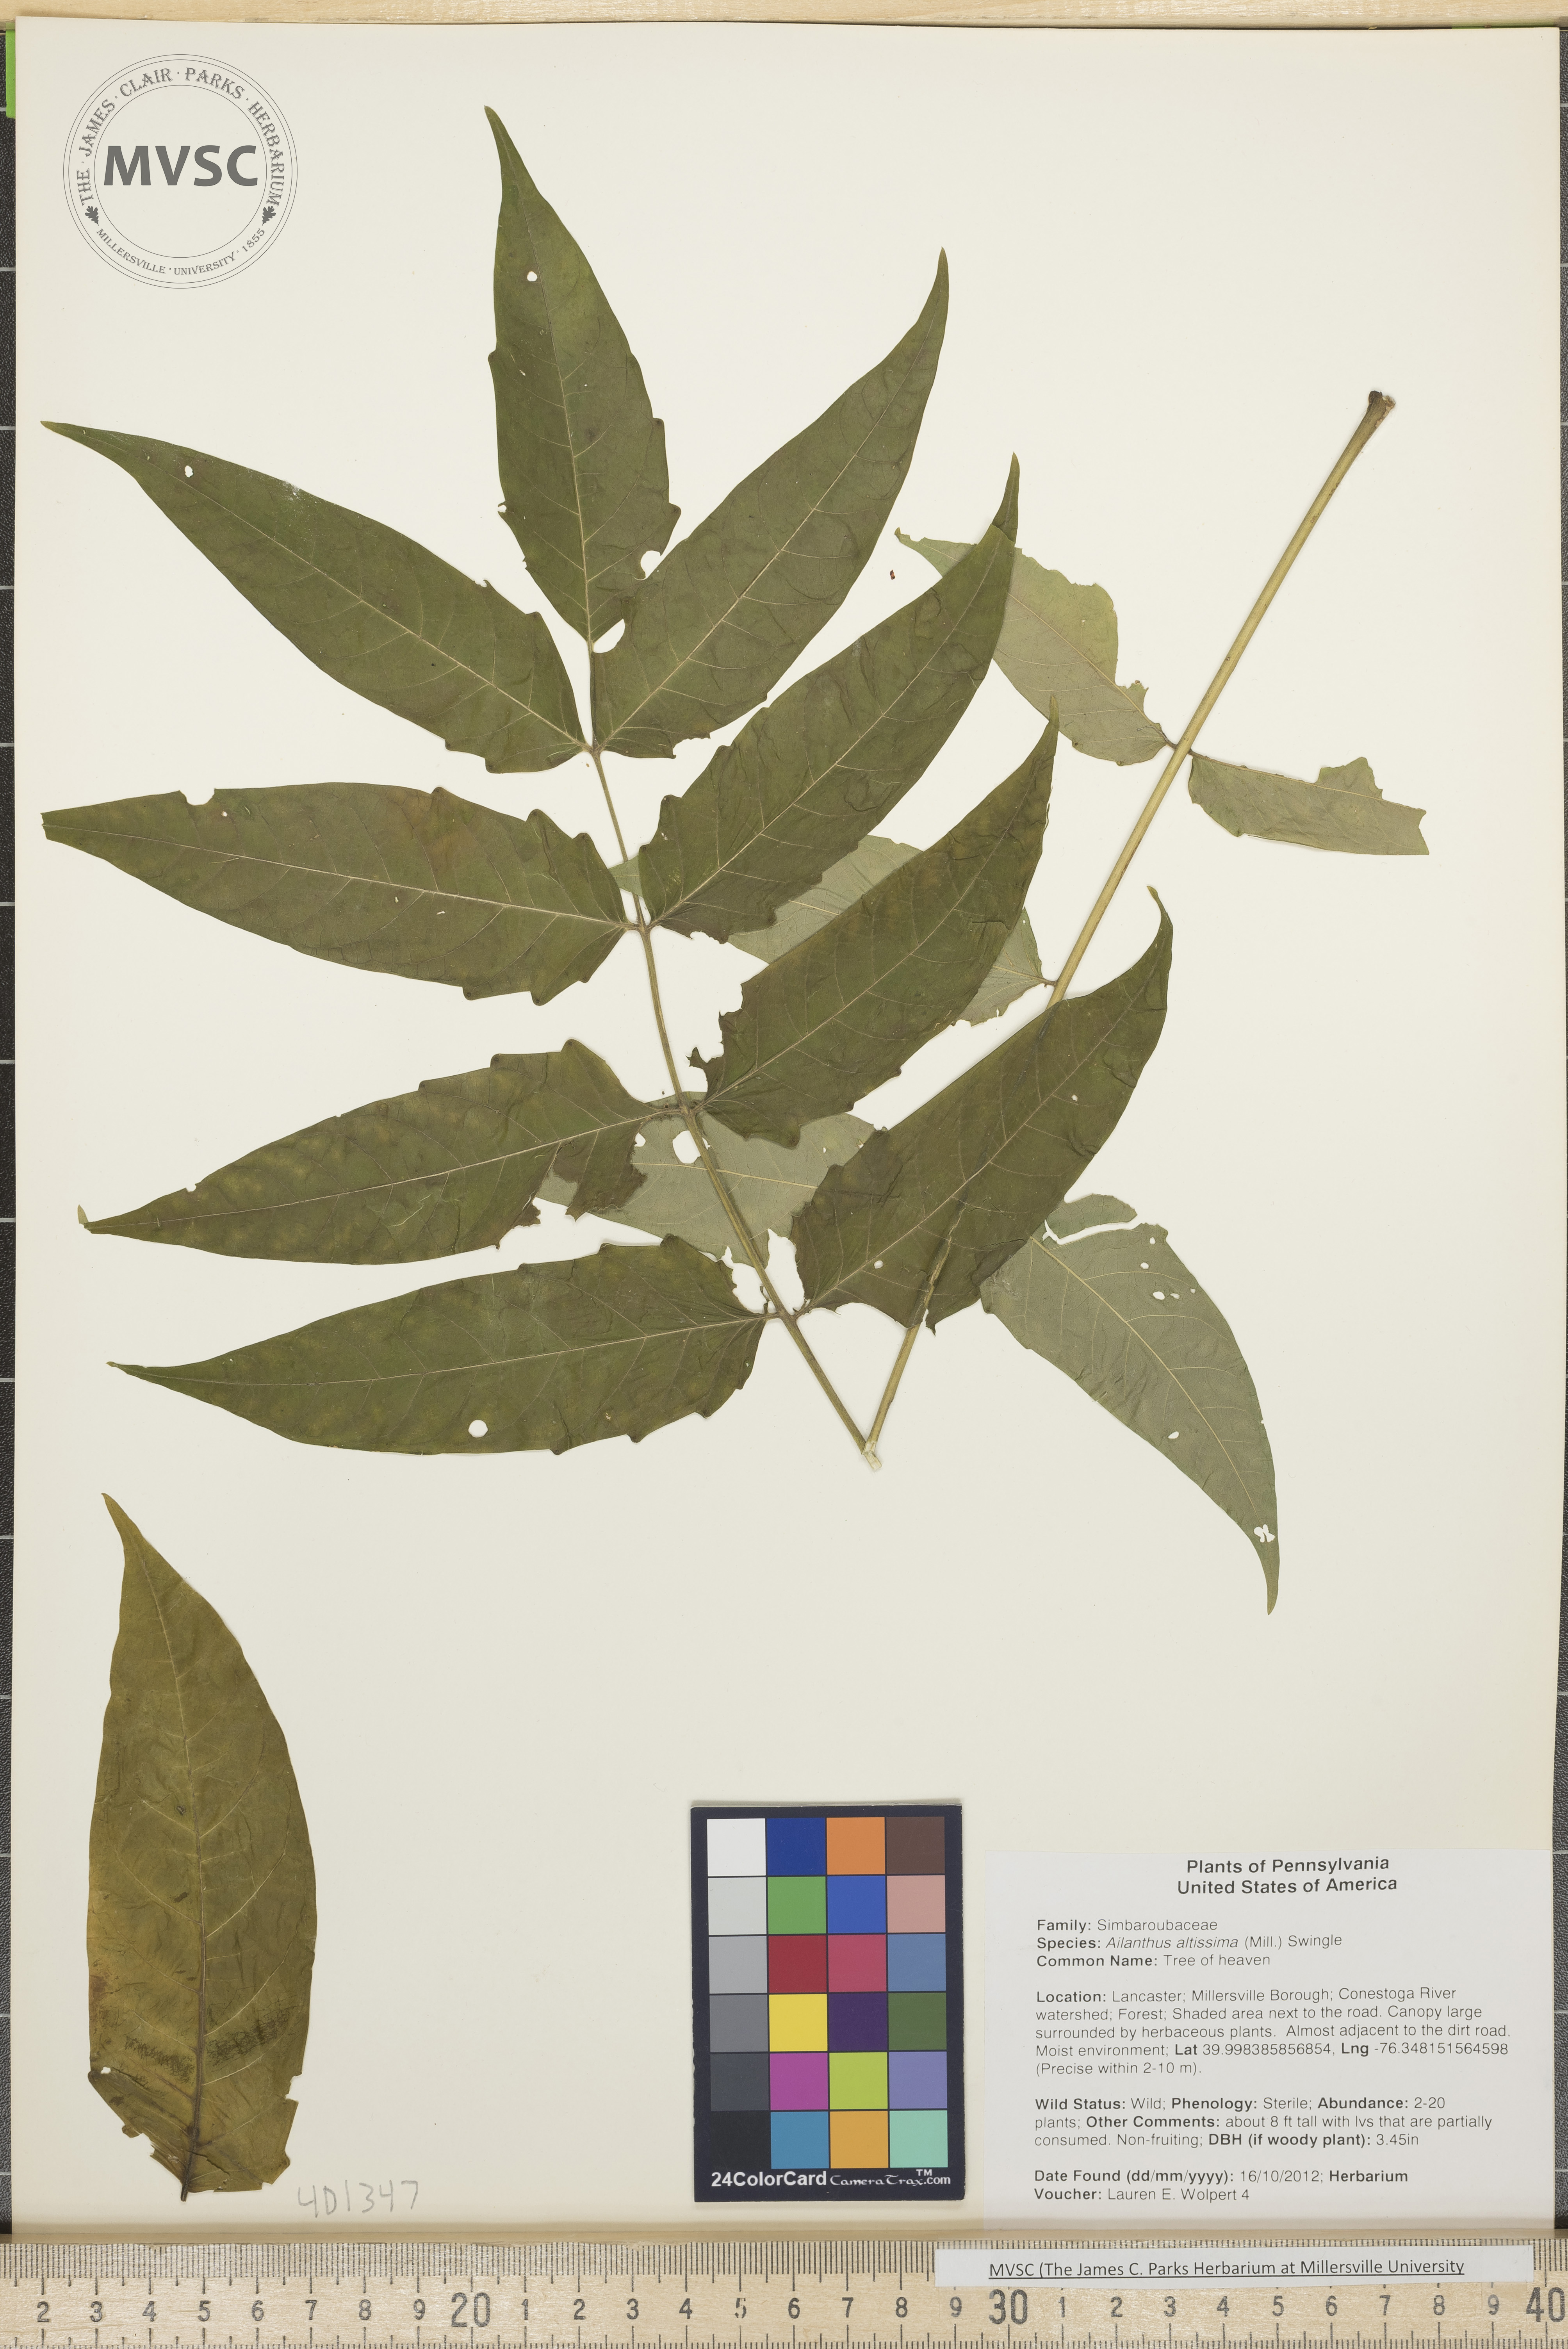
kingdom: Plantae
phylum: Tracheophyta
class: Magnoliopsida
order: Sapindales
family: Simaroubaceae
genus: Ailanthus
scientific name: Ailanthus altissima
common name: Tree of Heaven
